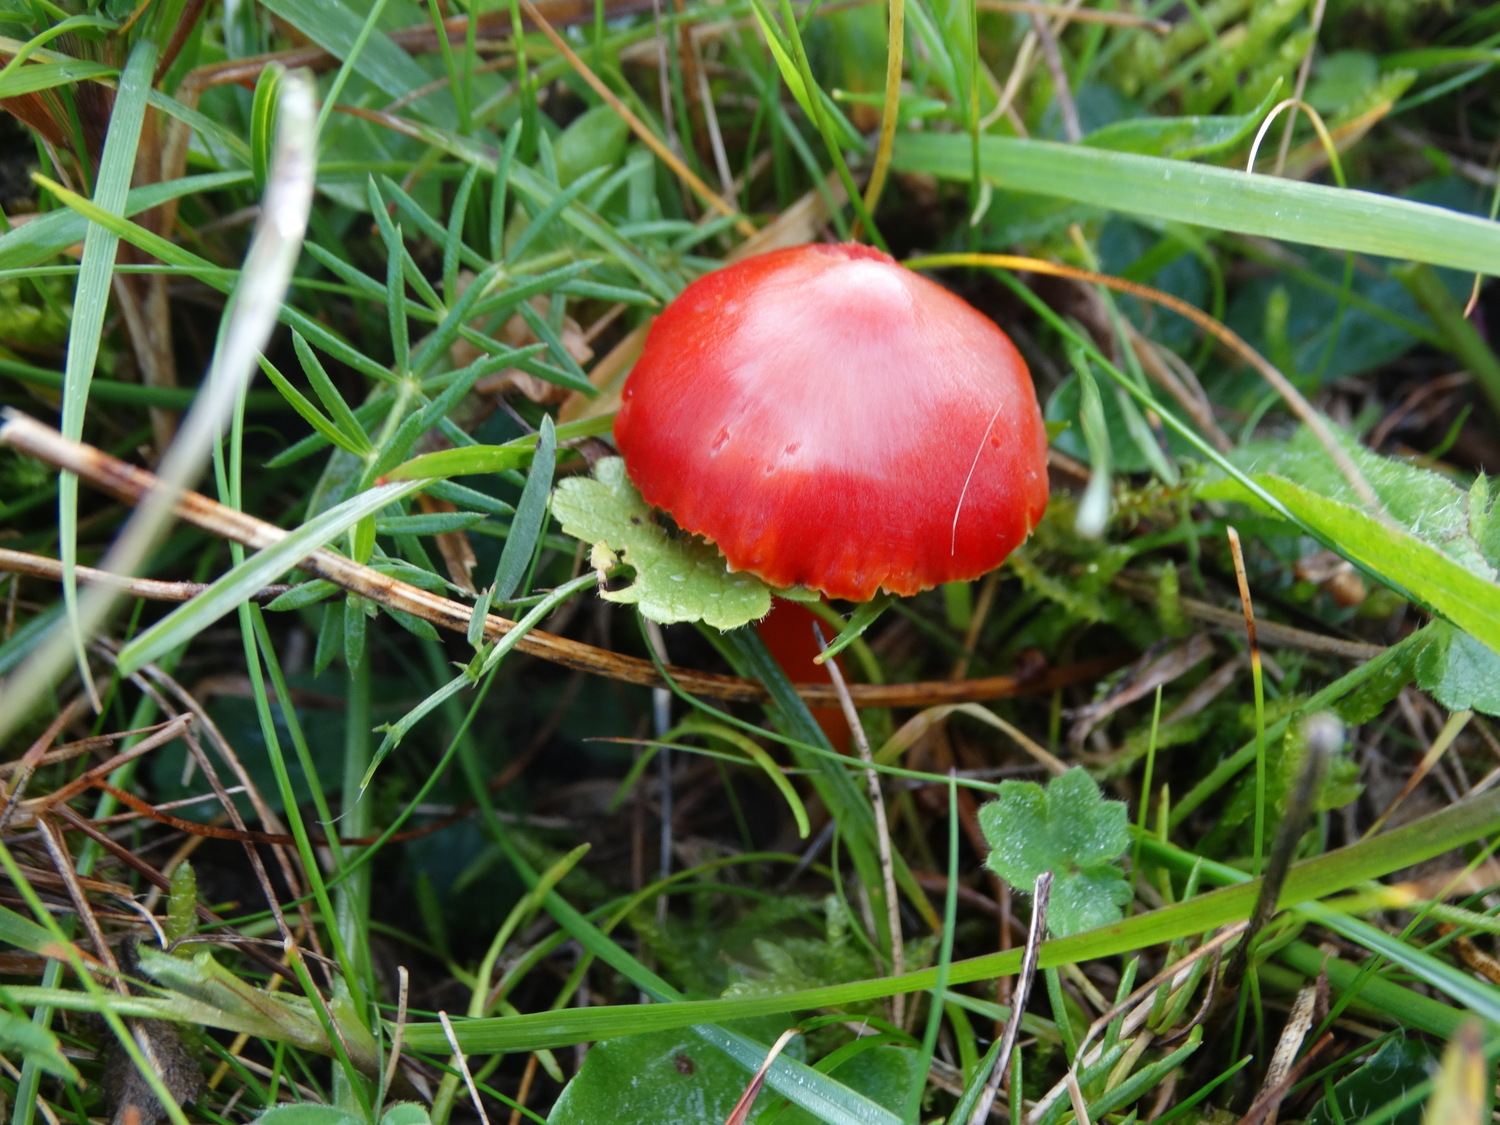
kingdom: Fungi
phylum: Basidiomycota
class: Agaricomycetes
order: Agaricales
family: Hygrophoraceae
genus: Hygrocybe
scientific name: Hygrocybe coccinea
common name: cinnober-vokshat
